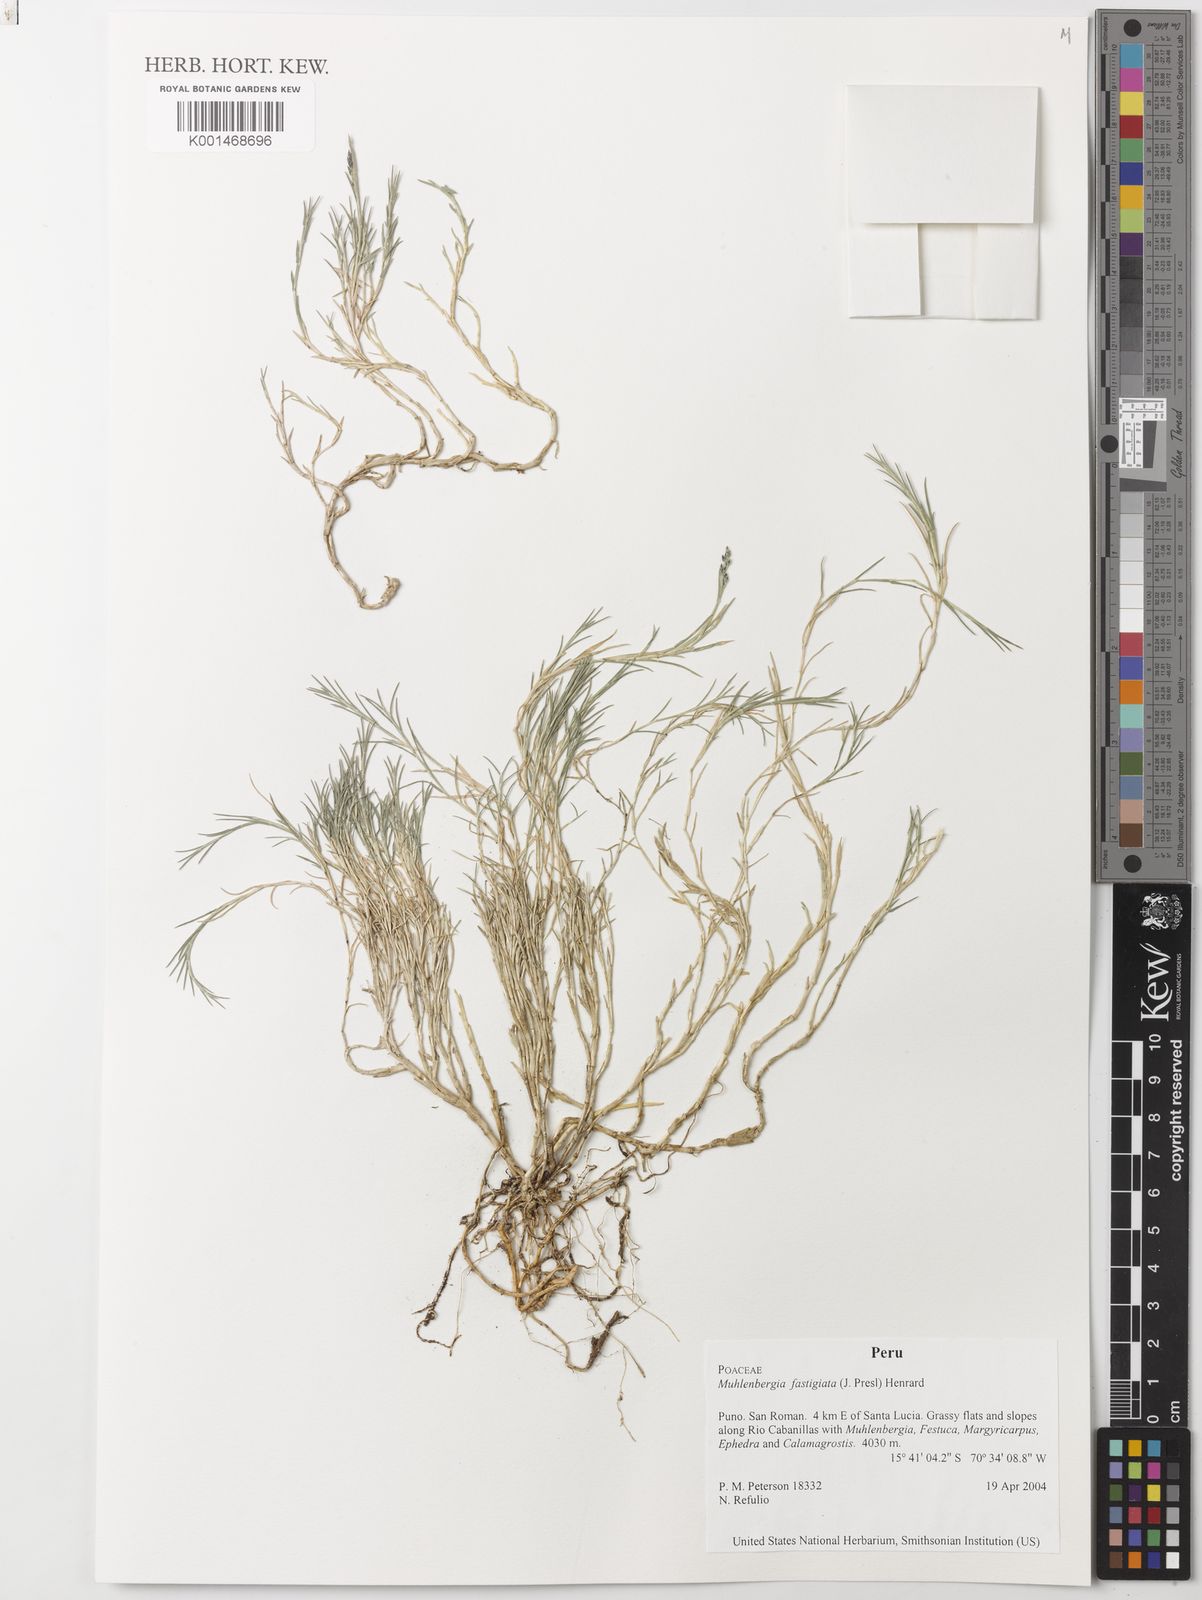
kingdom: Plantae
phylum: Tracheophyta
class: Liliopsida
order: Poales
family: Poaceae
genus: Muhlenbergia
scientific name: Muhlenbergia fastigiata
